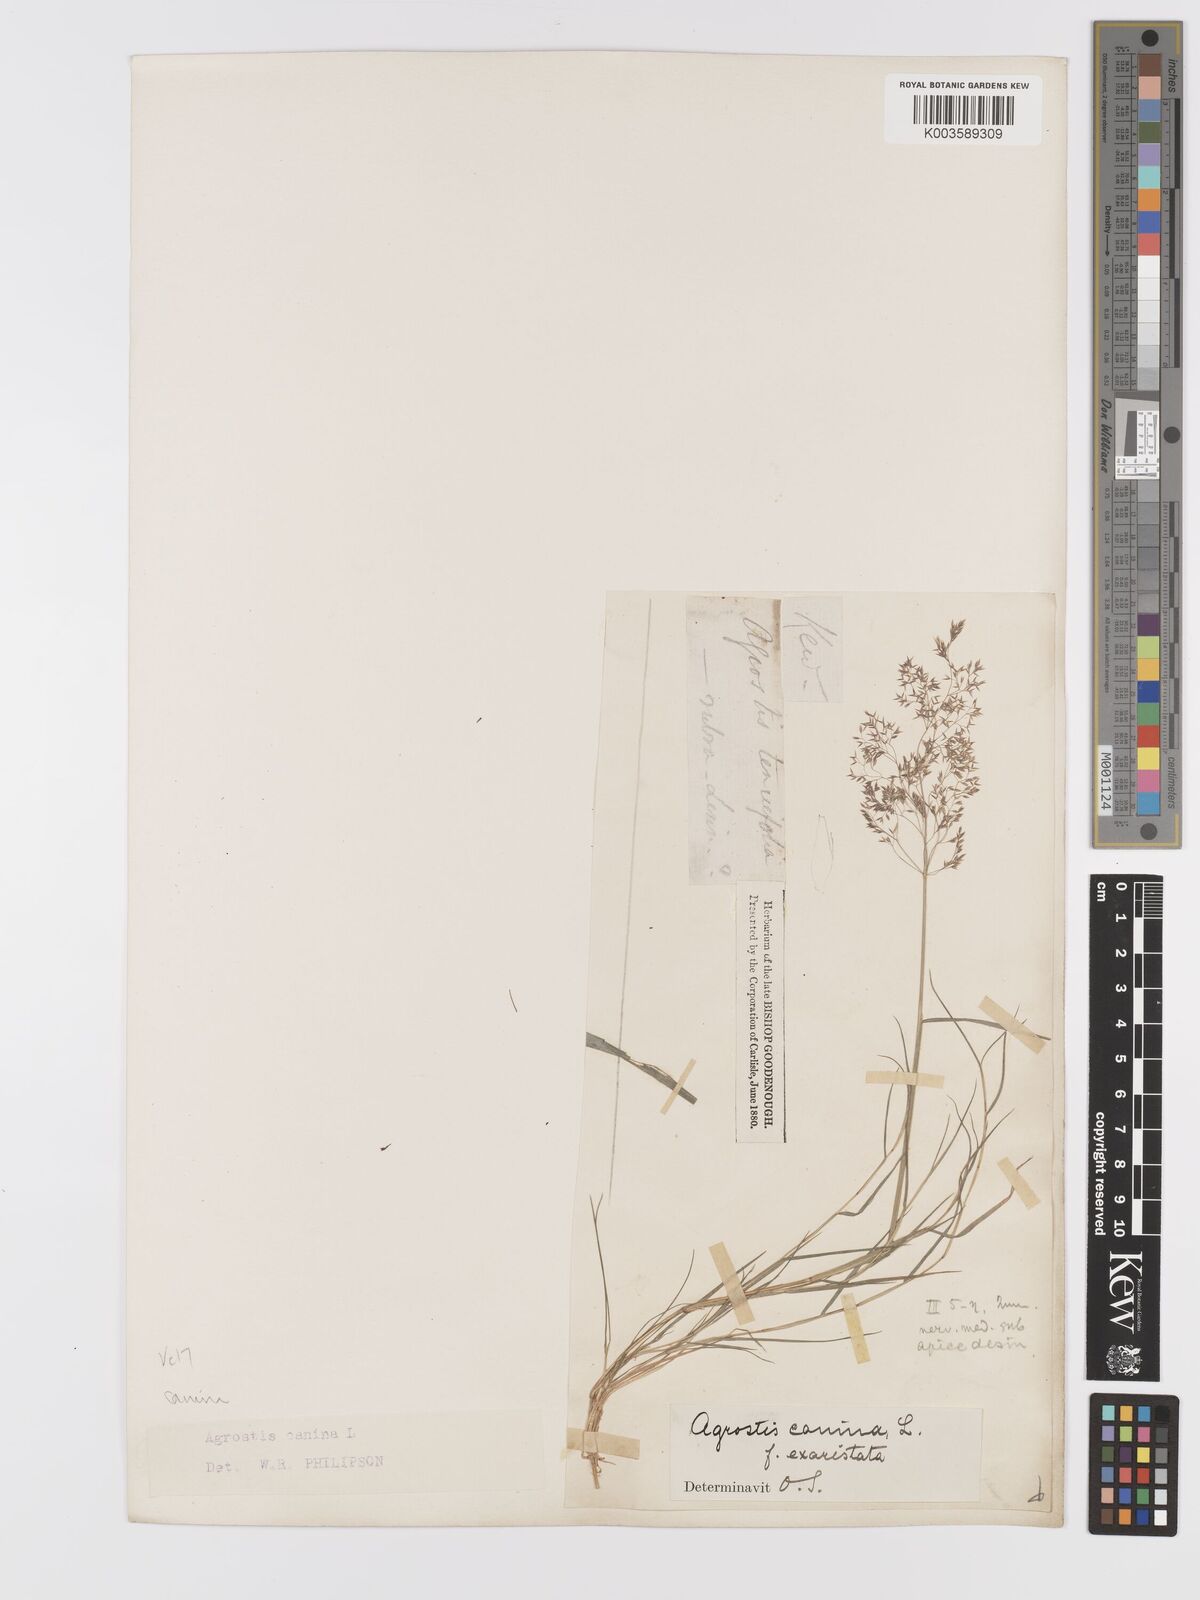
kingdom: Plantae
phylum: Tracheophyta
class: Liliopsida
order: Poales
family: Poaceae
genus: Agrostis
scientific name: Agrostis canina
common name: Velvet bent
